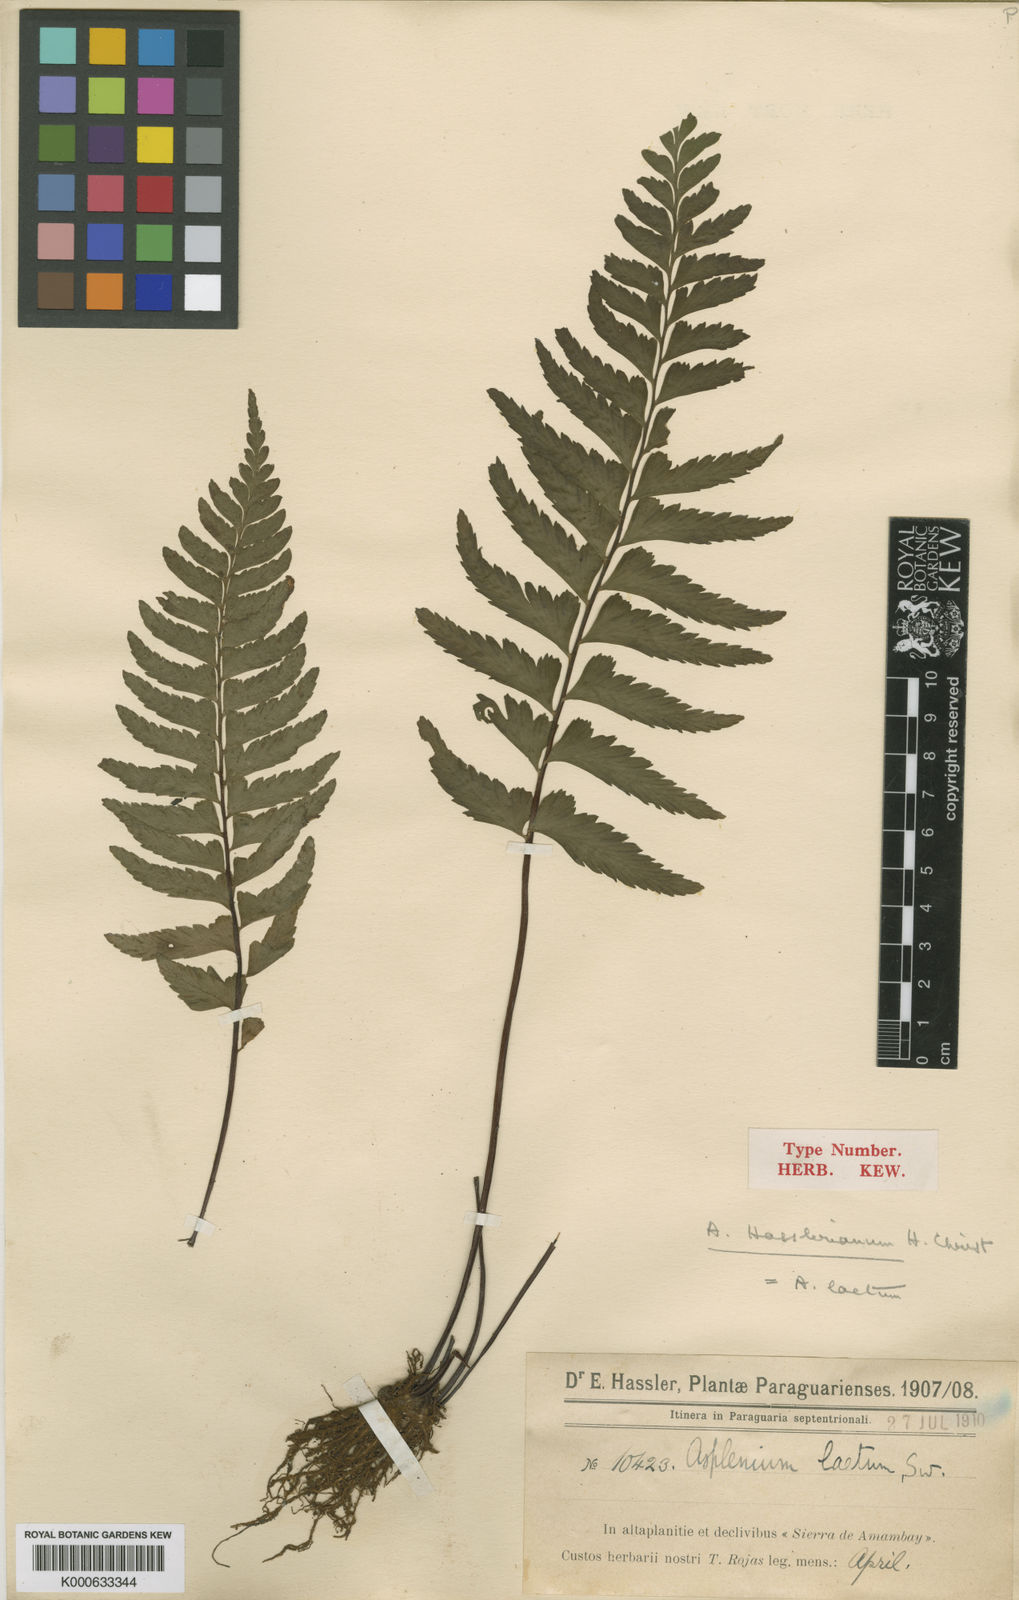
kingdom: Plantae
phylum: Tracheophyta
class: Polypodiopsida
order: Polypodiales
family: Aspleniaceae
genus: Hymenasplenium
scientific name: Hymenasplenium laetum
